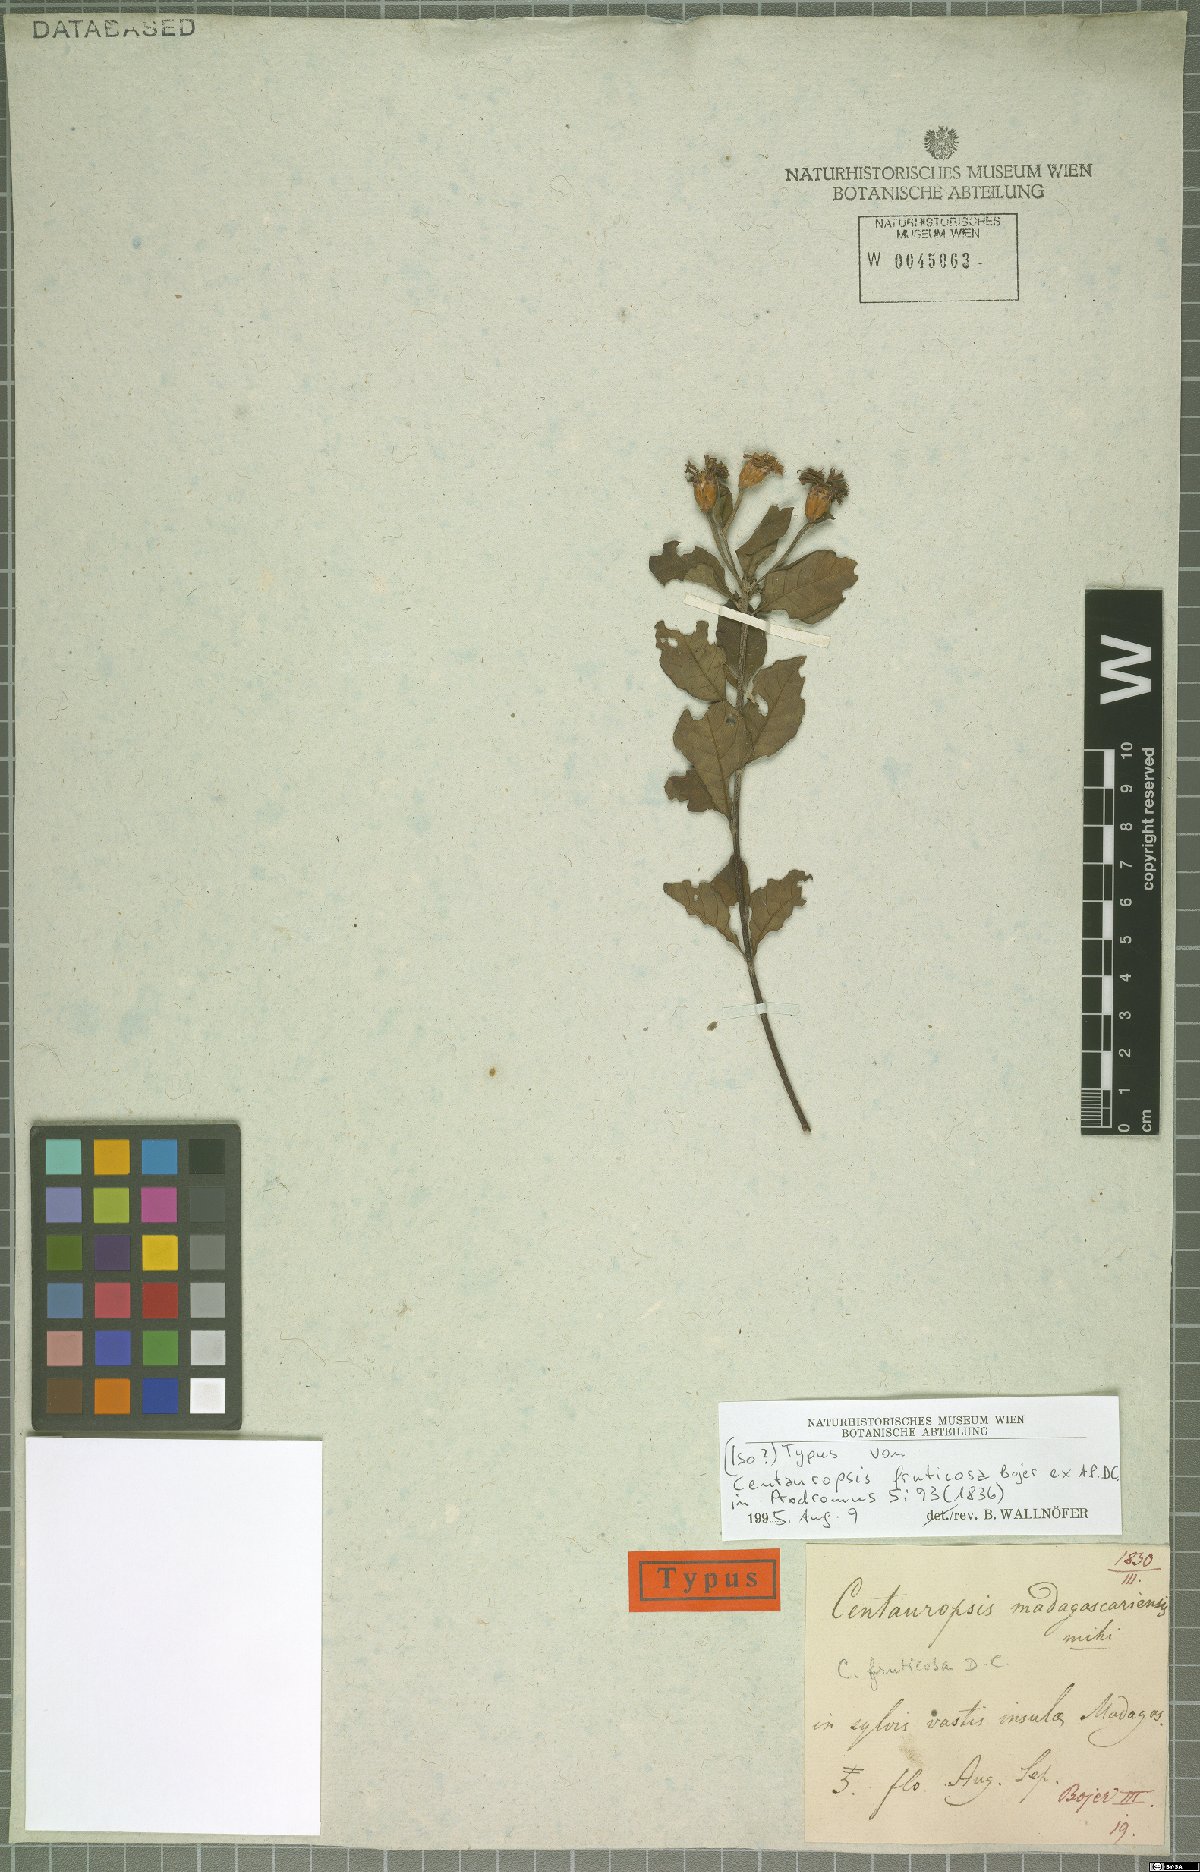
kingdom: Plantae
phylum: Tracheophyta
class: Magnoliopsida
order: Asterales
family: Asteraceae
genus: Centauropsis
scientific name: Centauropsis fruticosa
